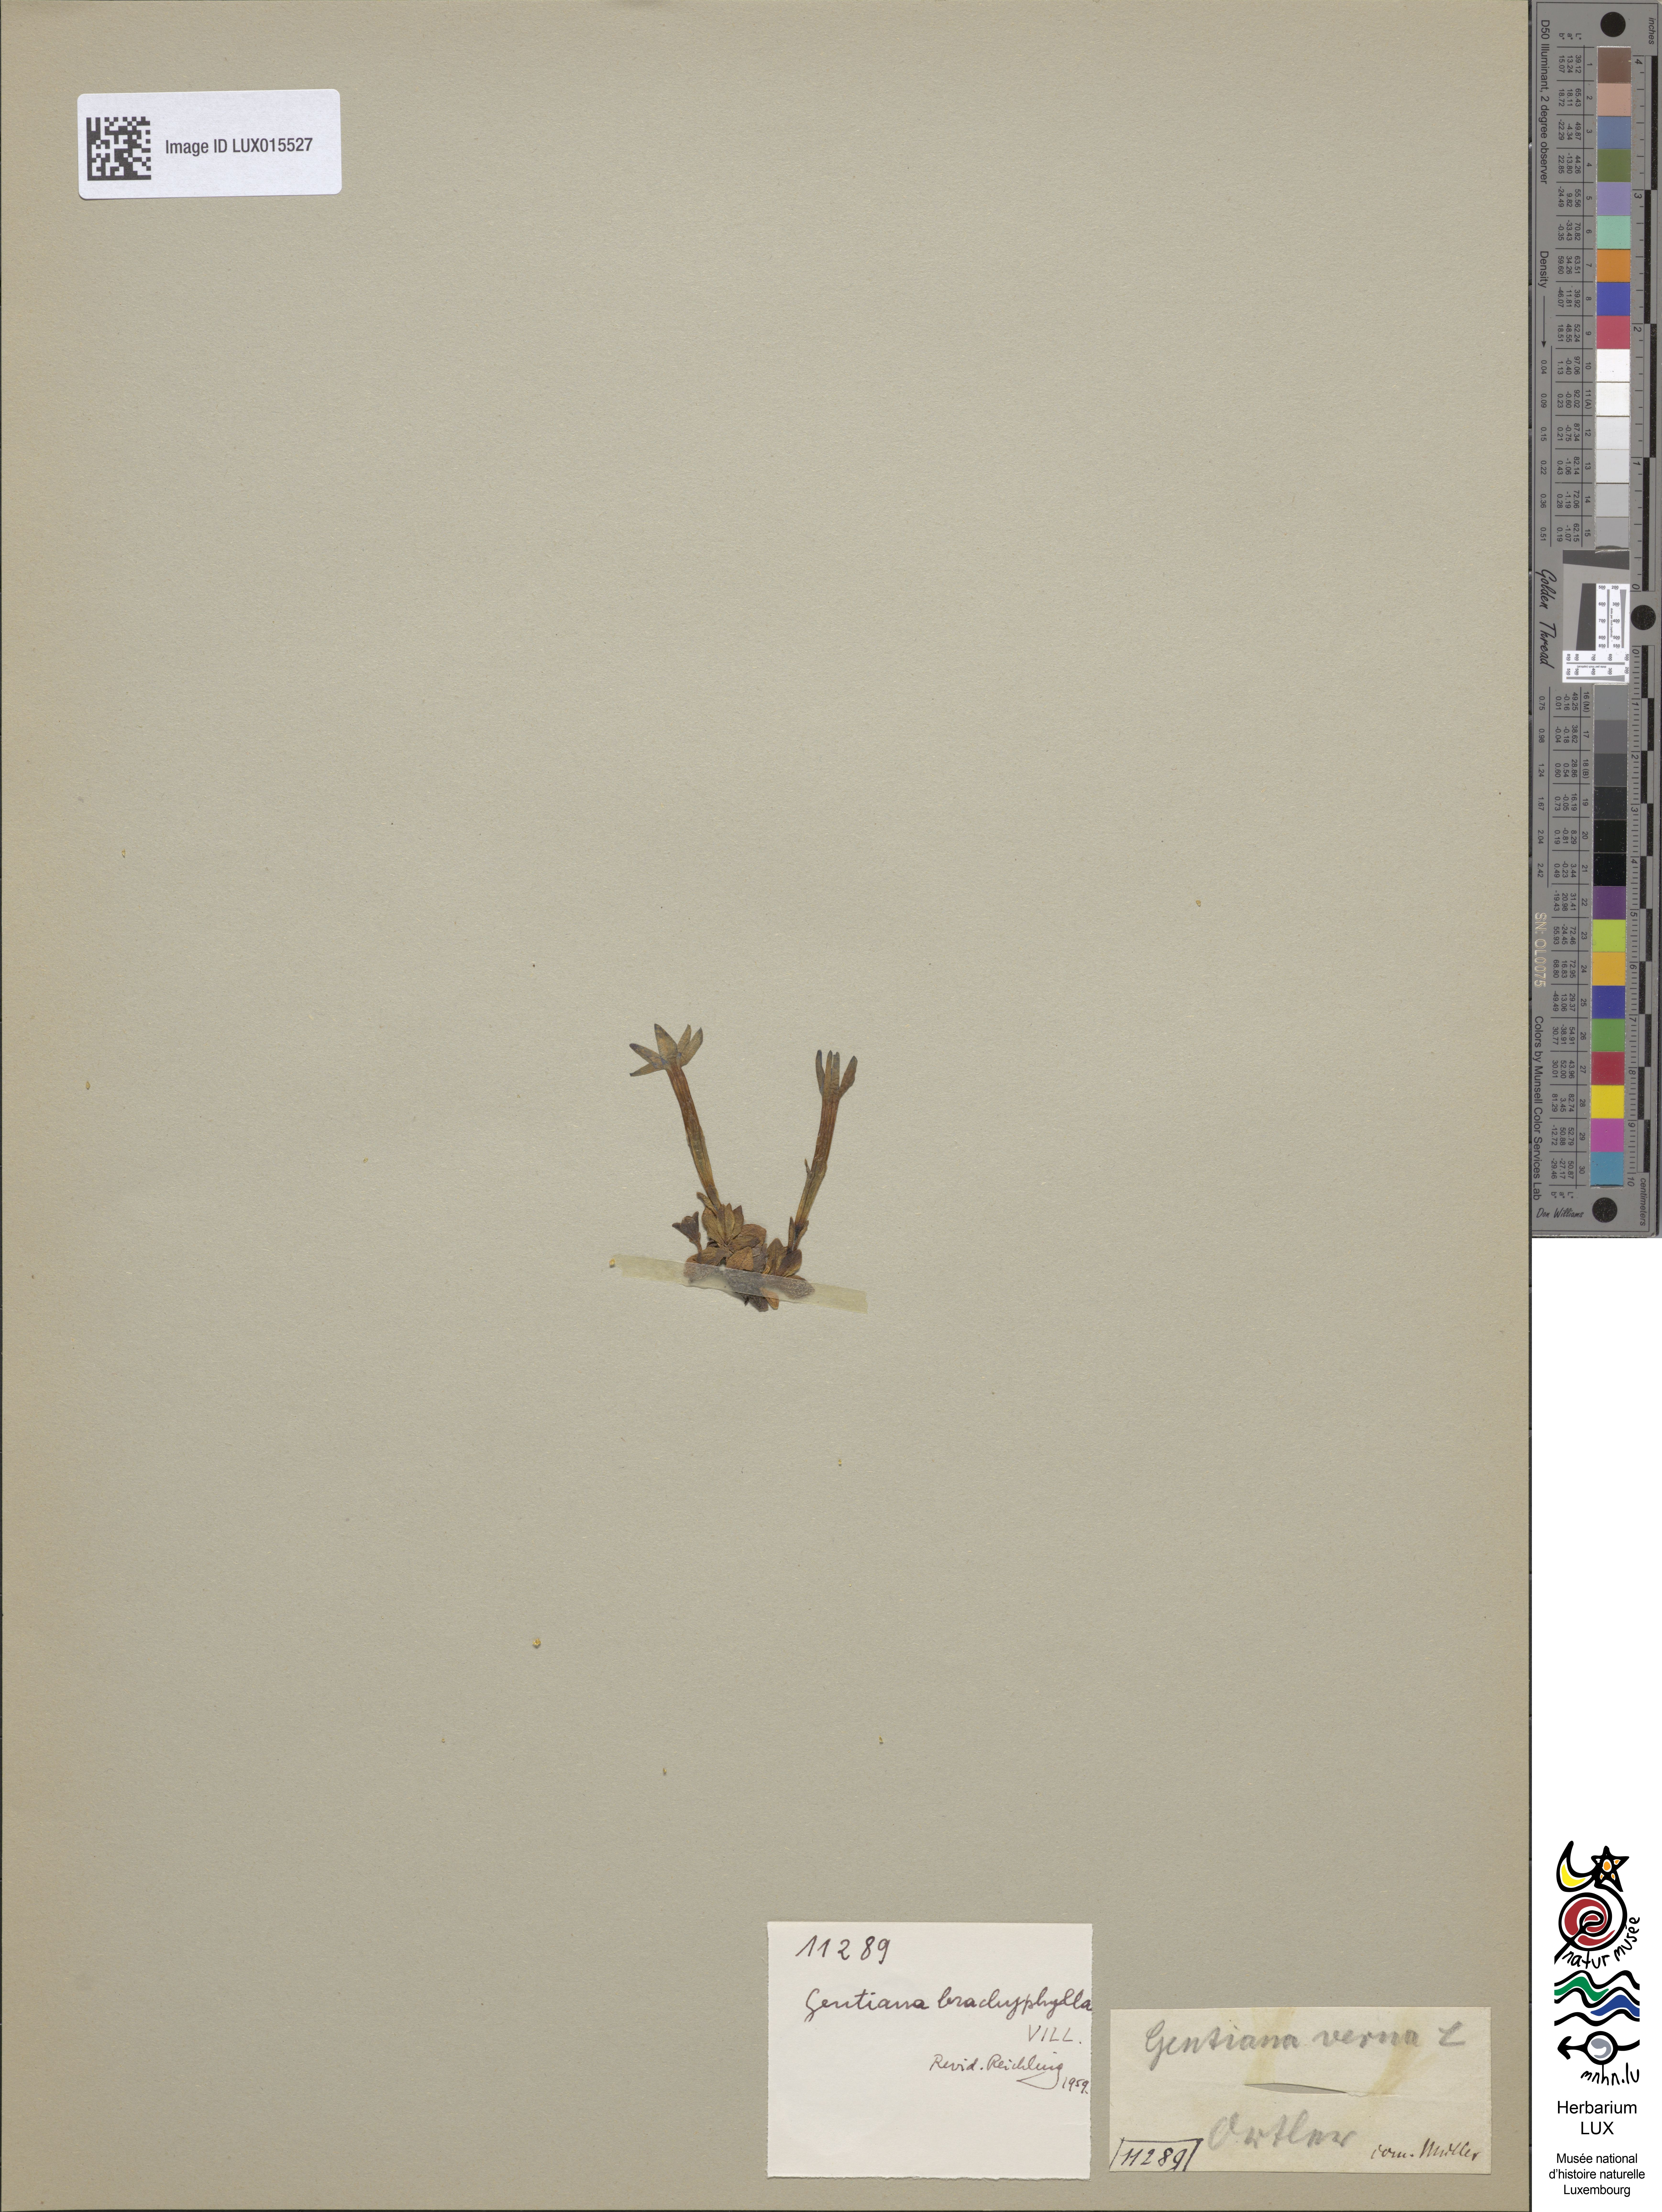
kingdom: Plantae
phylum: Tracheophyta
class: Magnoliopsida
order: Gentianales
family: Gentianaceae
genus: Gentiana
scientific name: Gentiana brachyphylla
